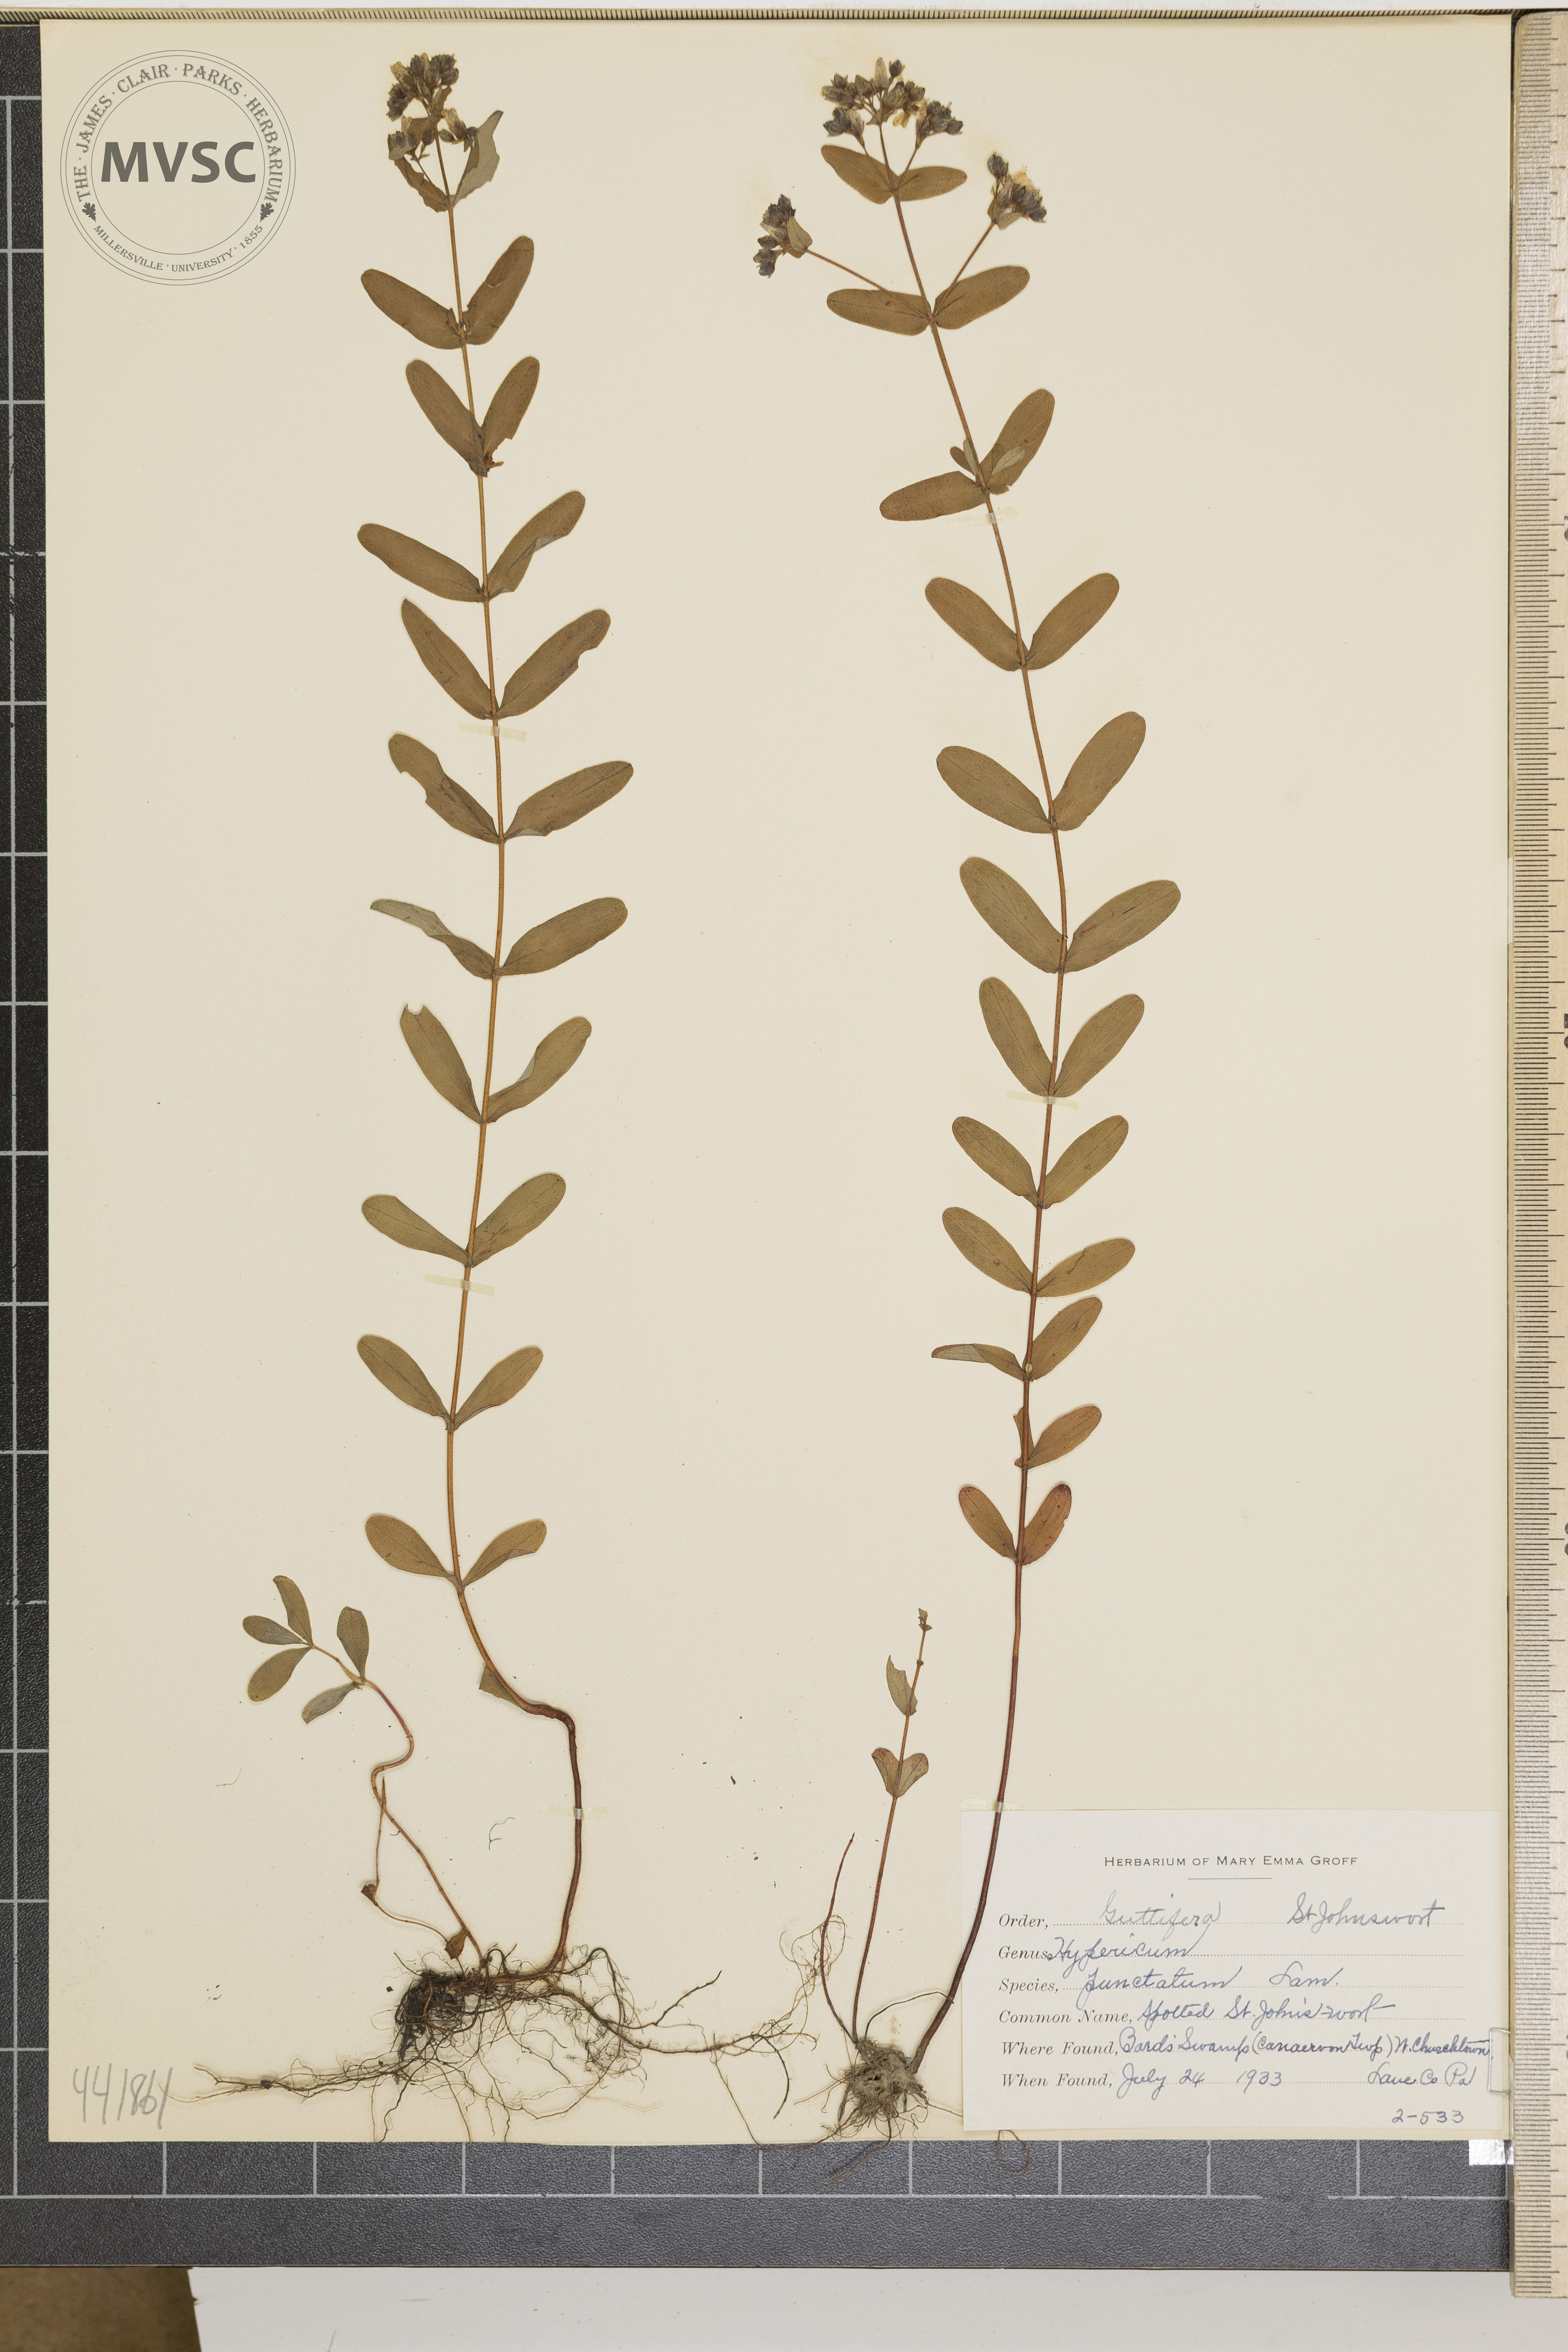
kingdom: Plantae
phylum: Tracheophyta
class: Magnoliopsida
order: Malpighiales
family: Hypericaceae
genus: Hypericum
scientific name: Hypericum punctatum
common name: Spotted St. Johnswort
